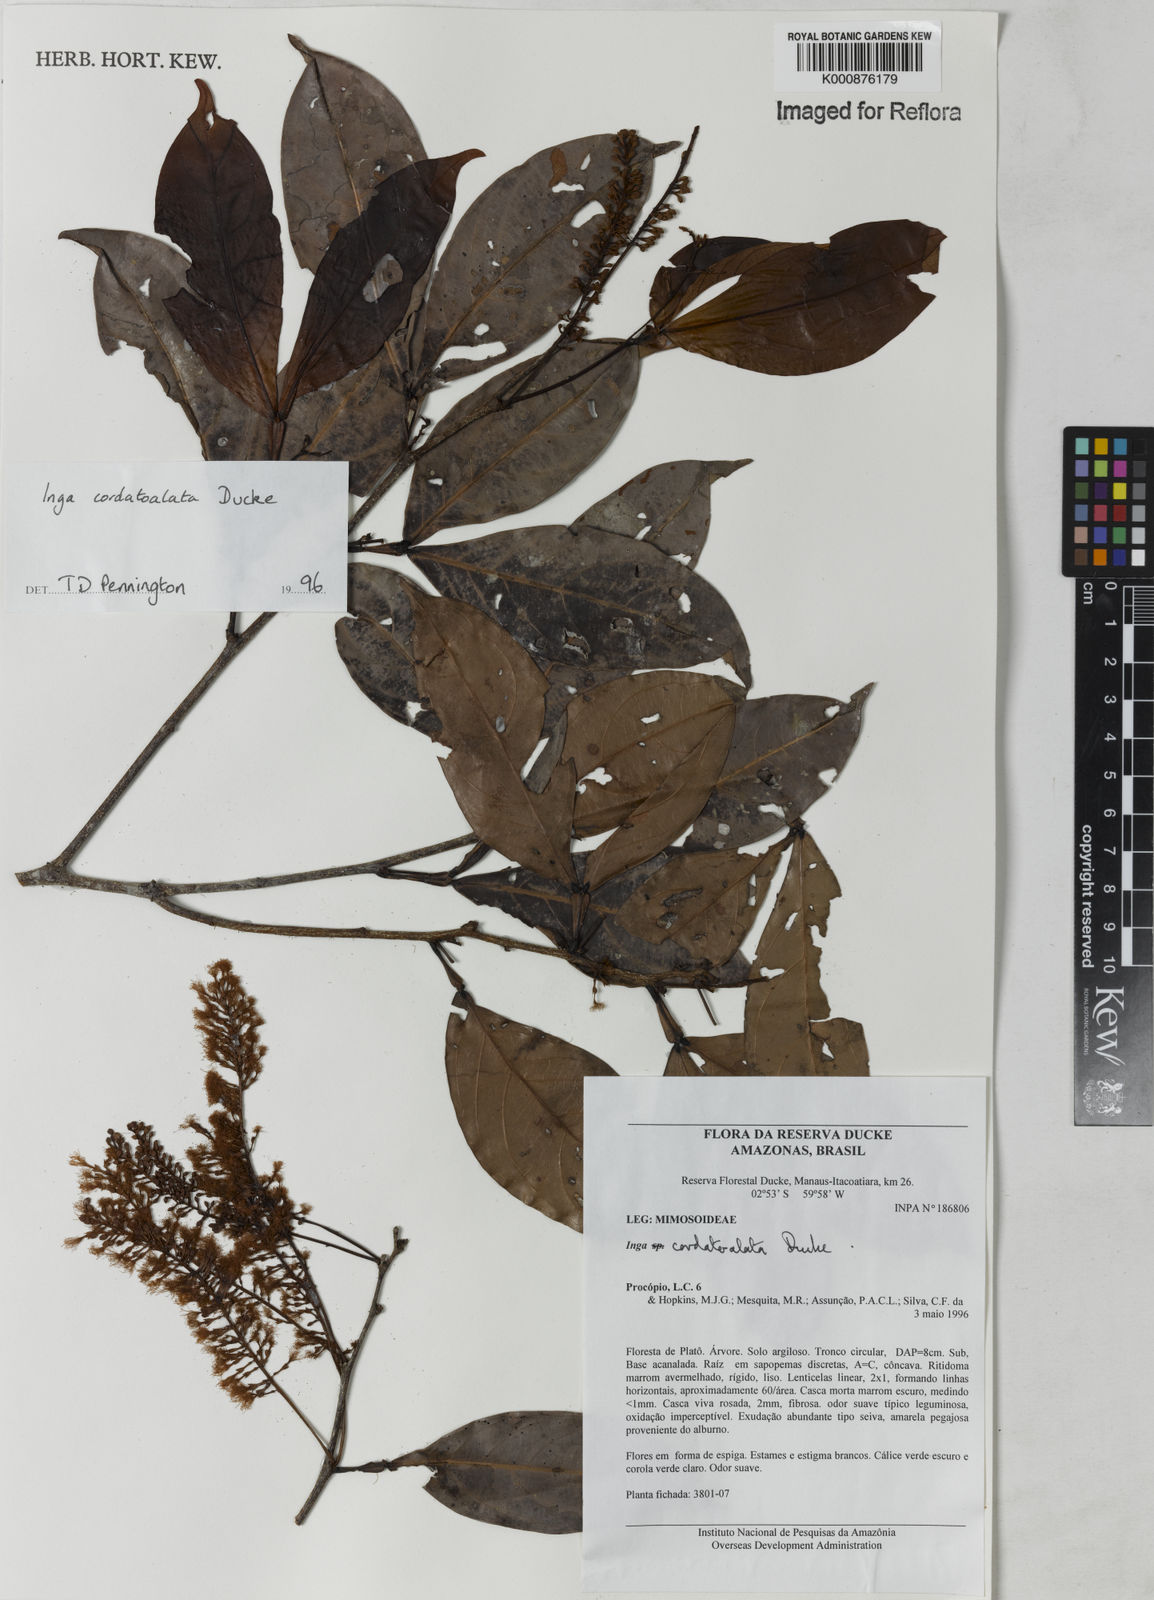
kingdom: Plantae
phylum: Tracheophyta
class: Magnoliopsida
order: Fabales
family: Fabaceae
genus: Inga
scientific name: Inga cordatoalata
